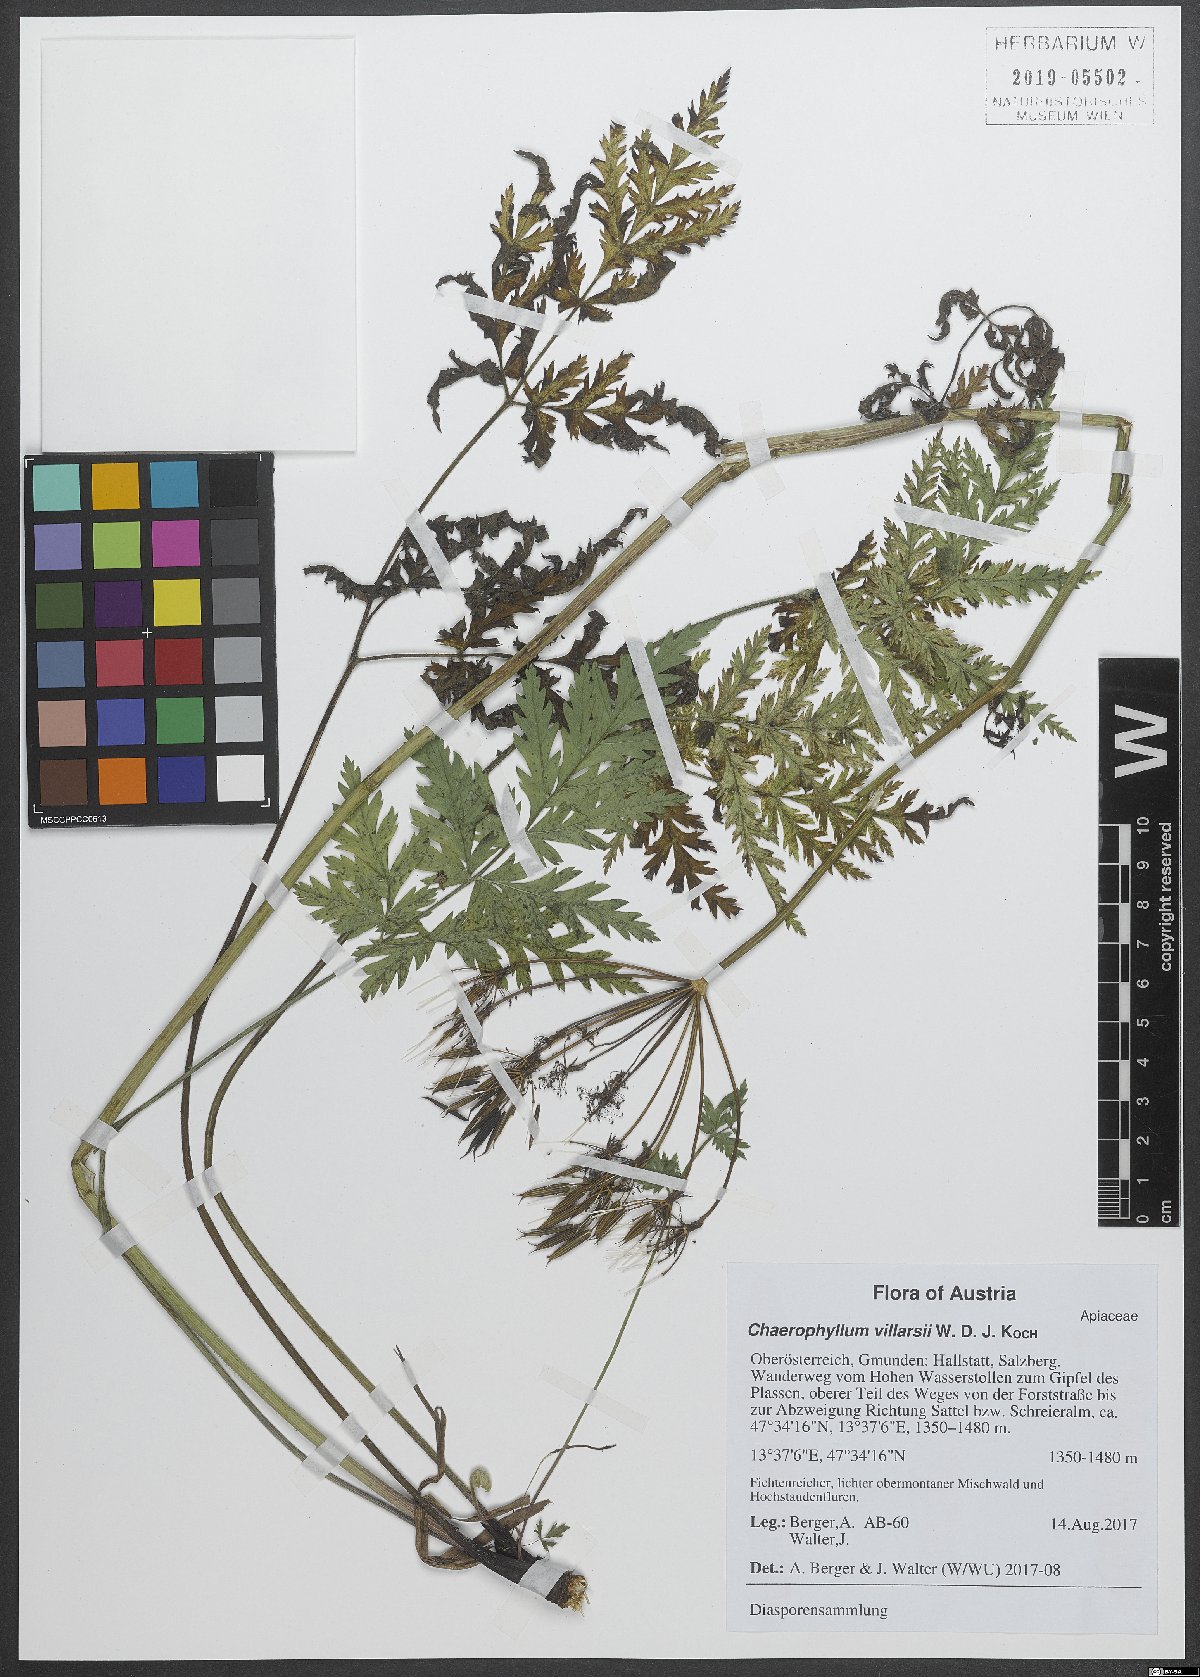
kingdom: Plantae
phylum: Tracheophyta
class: Magnoliopsida
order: Apiales
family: Apiaceae
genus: Chaerophyllum
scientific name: Chaerophyllum villarsii
